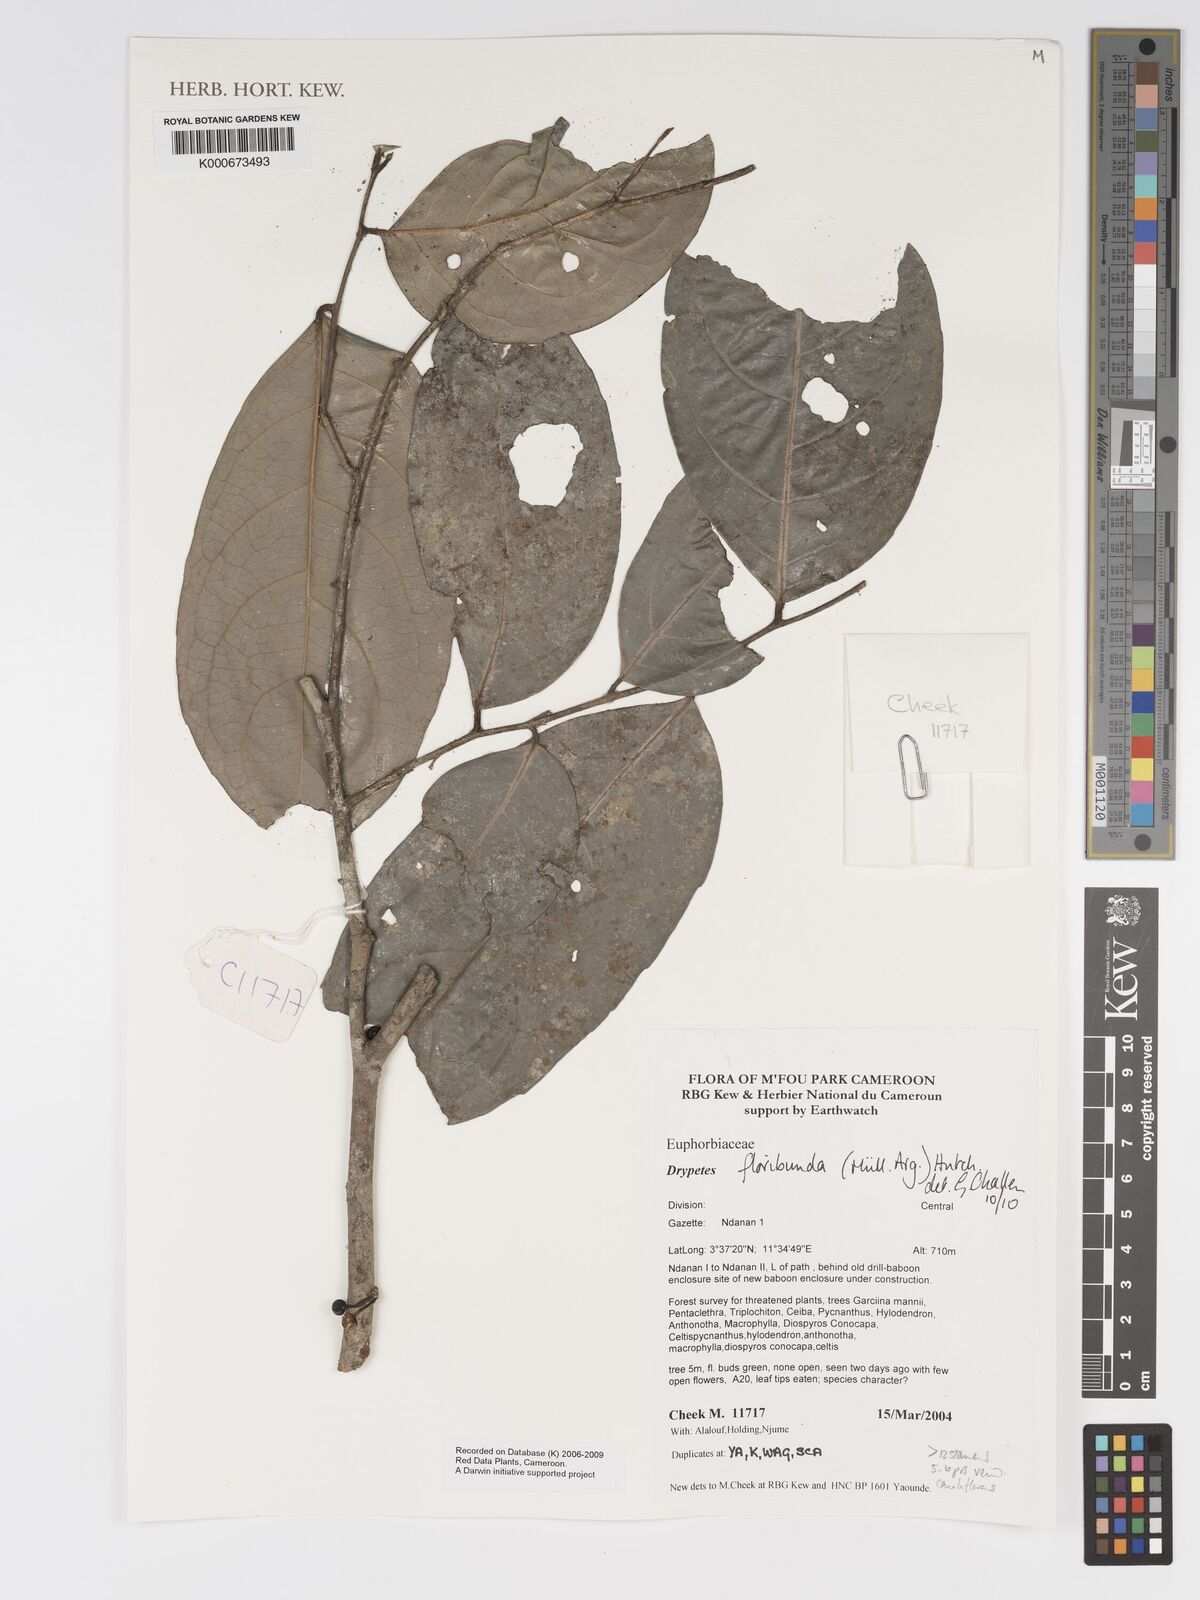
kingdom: Plantae
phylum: Tracheophyta
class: Magnoliopsida
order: Malpighiales
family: Putranjivaceae
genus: Drypetes
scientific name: Drypetes
